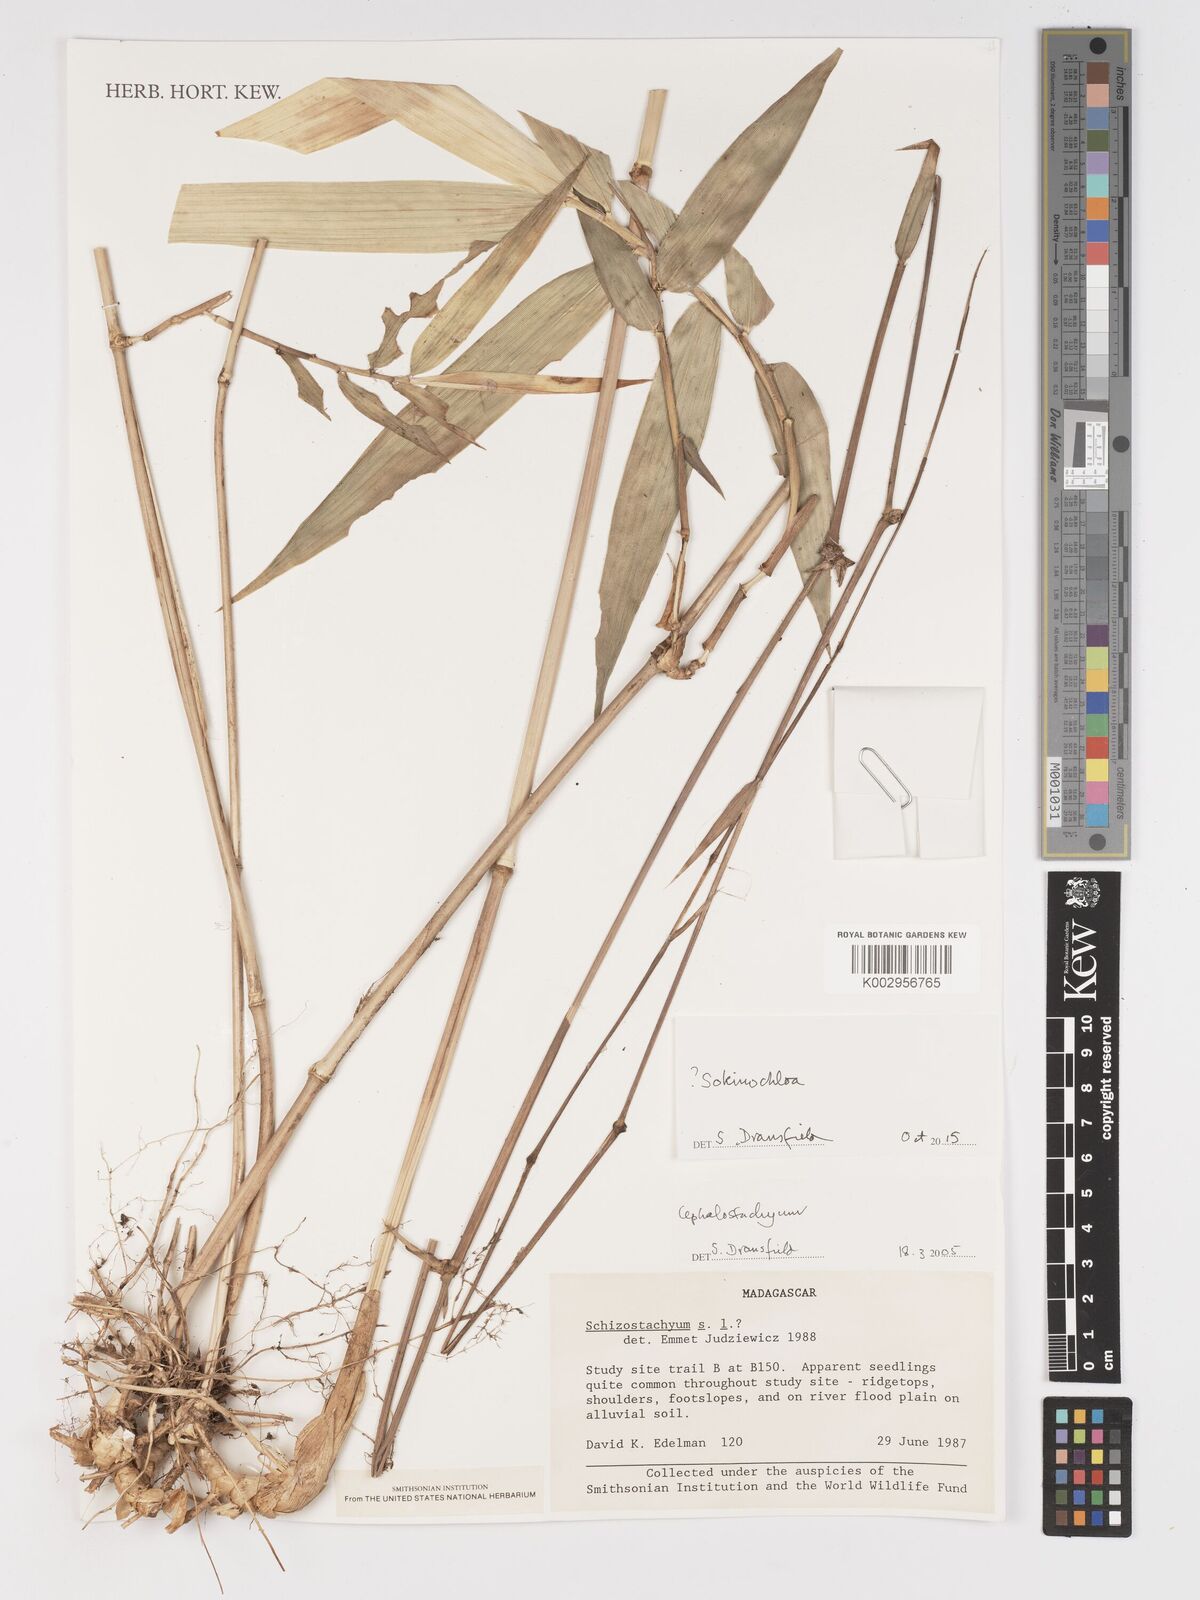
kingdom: Plantae
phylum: Tracheophyta
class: Liliopsida
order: Poales
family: Poaceae
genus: Sokinochloa
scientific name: Sokinochloa
